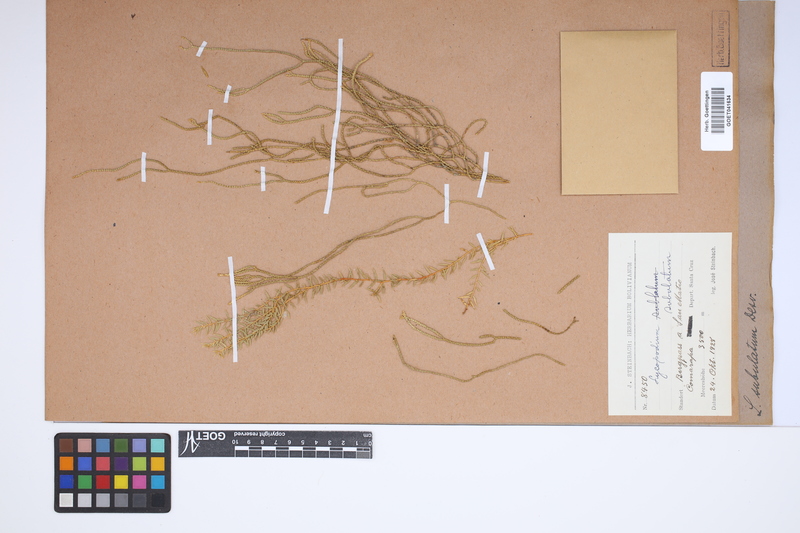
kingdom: Plantae
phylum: Tracheophyta
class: Lycopodiopsida
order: Lycopodiales
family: Lycopodiaceae
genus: Phlegmariurus
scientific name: Phlegmariurus subulatus
